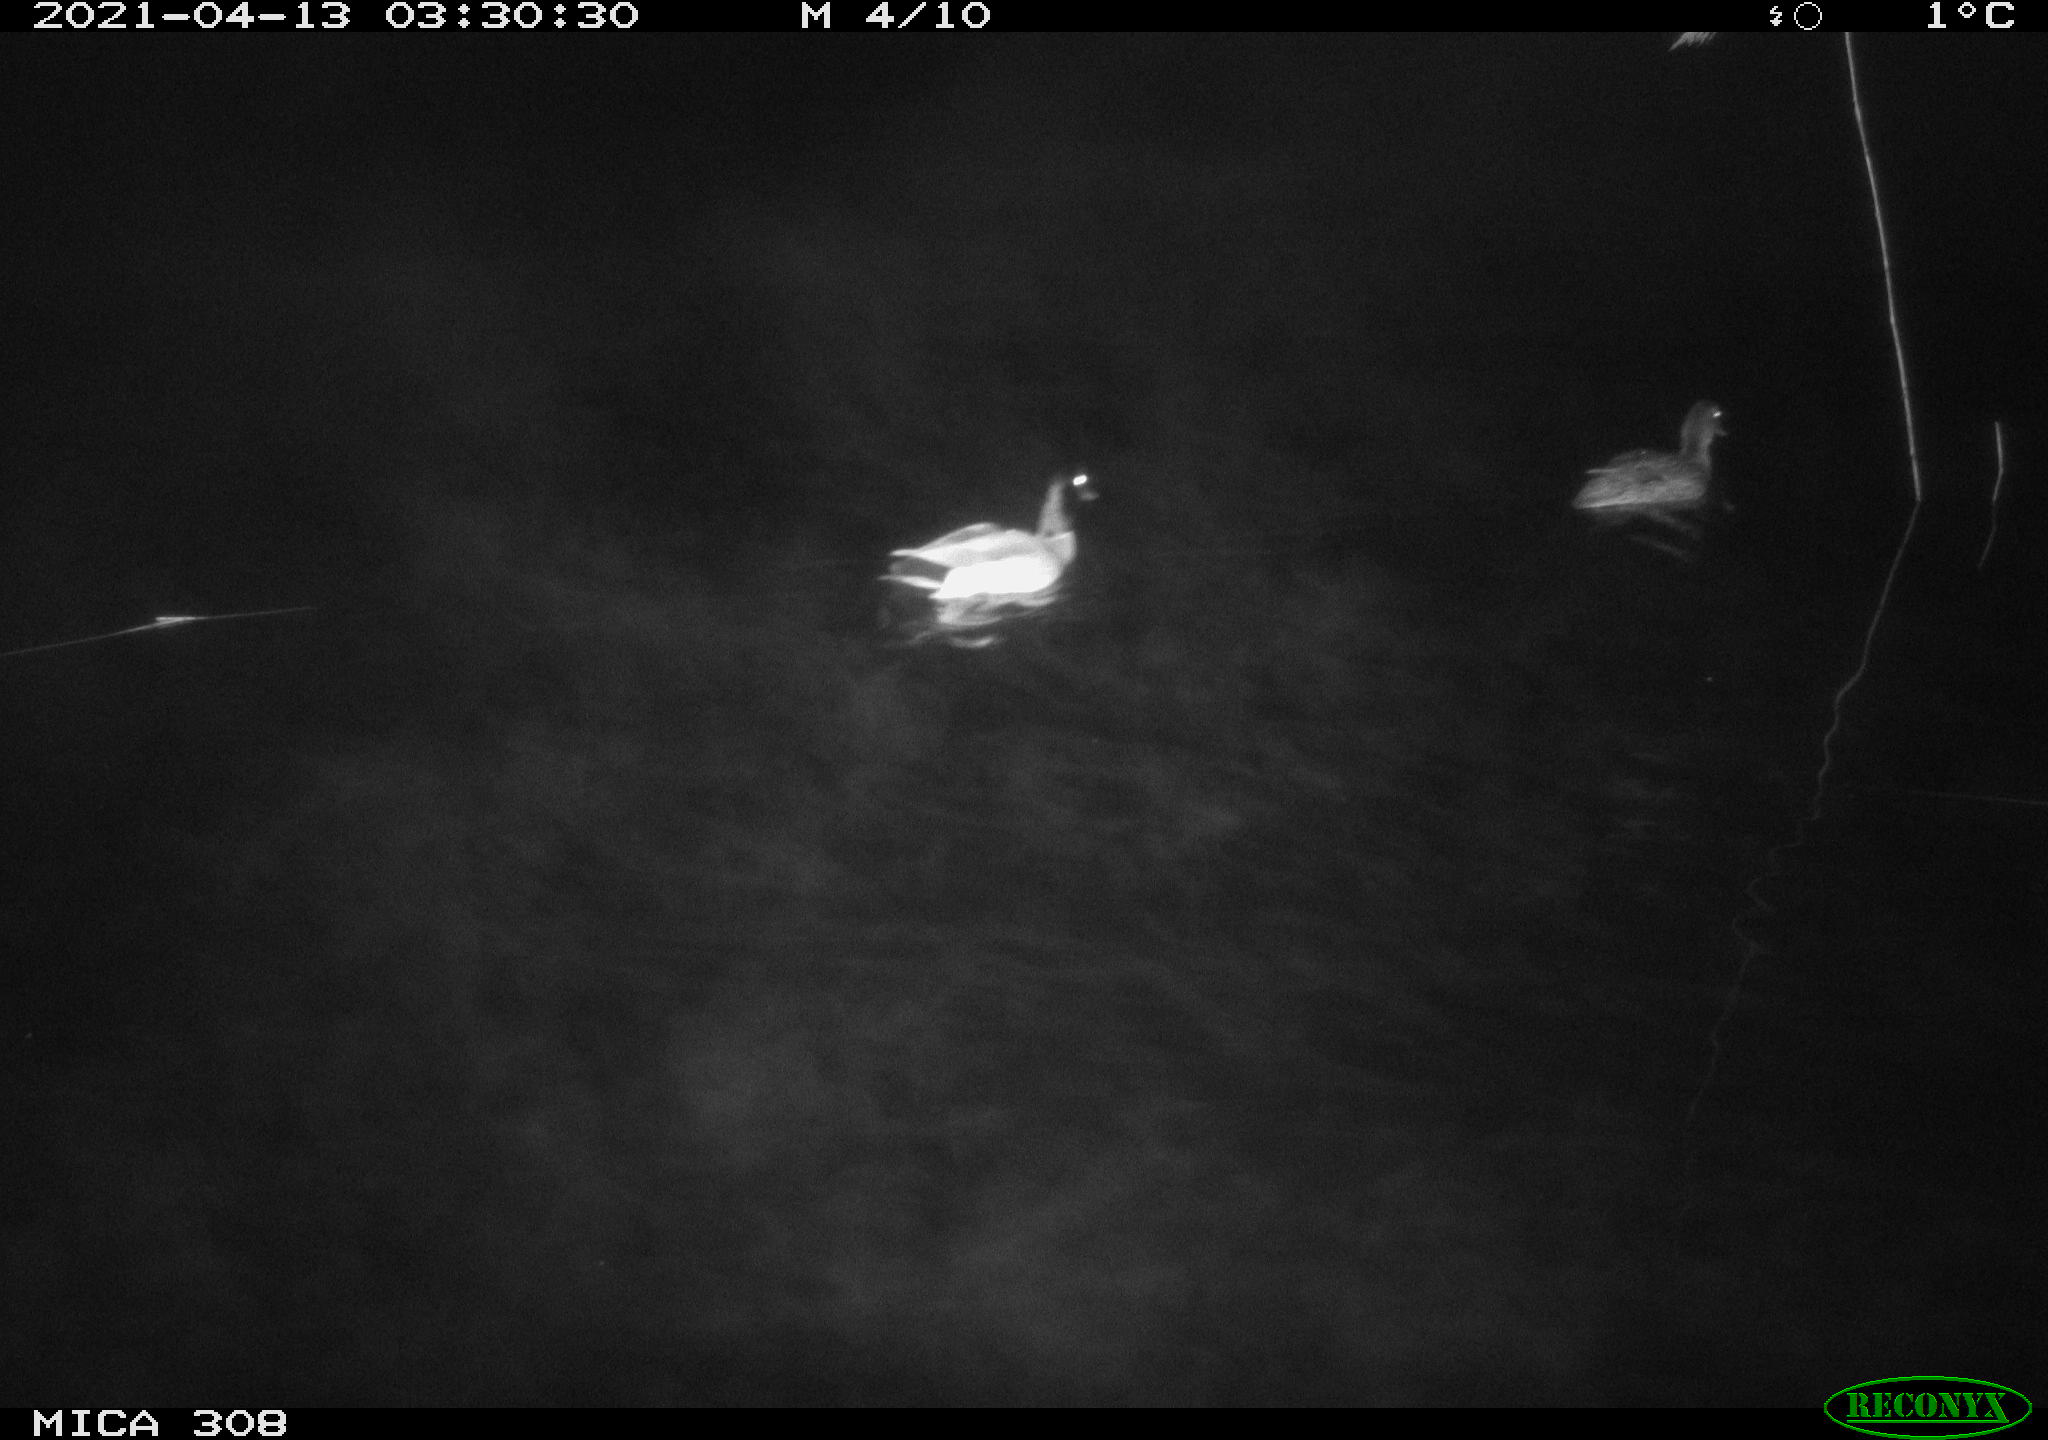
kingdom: Animalia
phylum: Chordata
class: Aves
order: Anseriformes
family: Anatidae
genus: Anas
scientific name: Anas platyrhynchos
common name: Mallard
